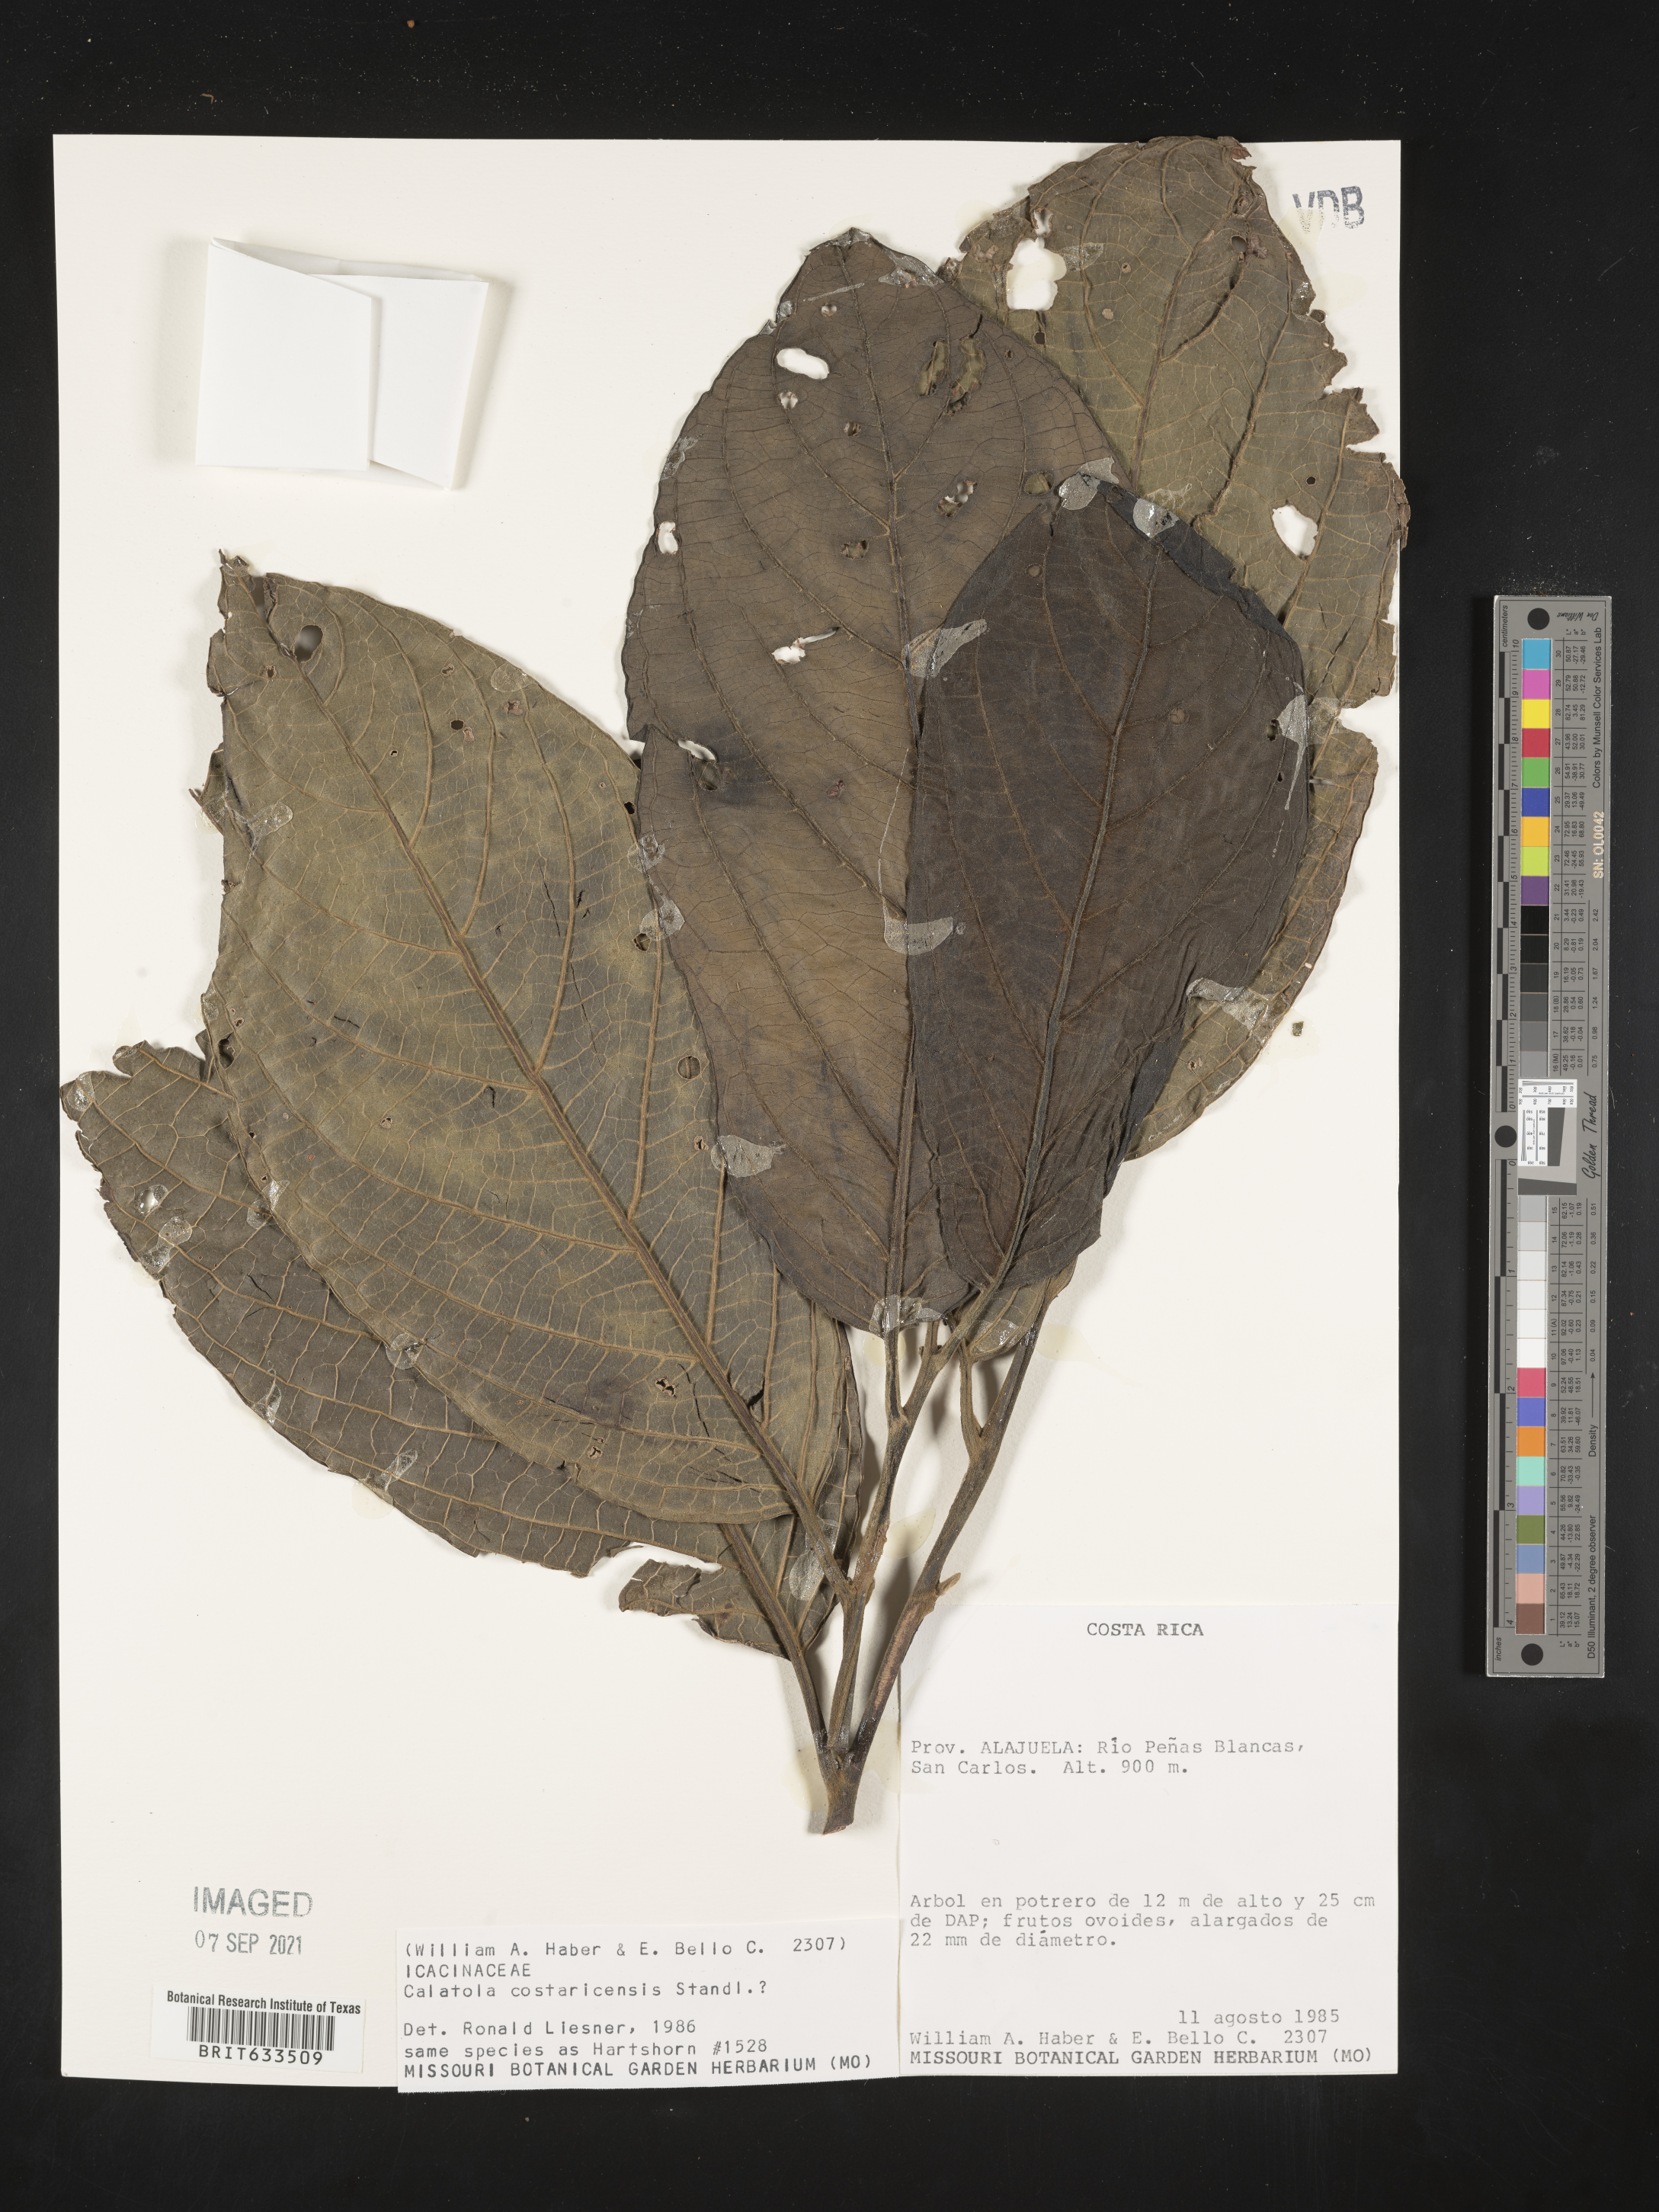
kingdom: Plantae
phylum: Tracheophyta
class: Magnoliopsida
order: Icacinales
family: Icacinaceae
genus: Calatola
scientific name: Calatola
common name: Calatola
